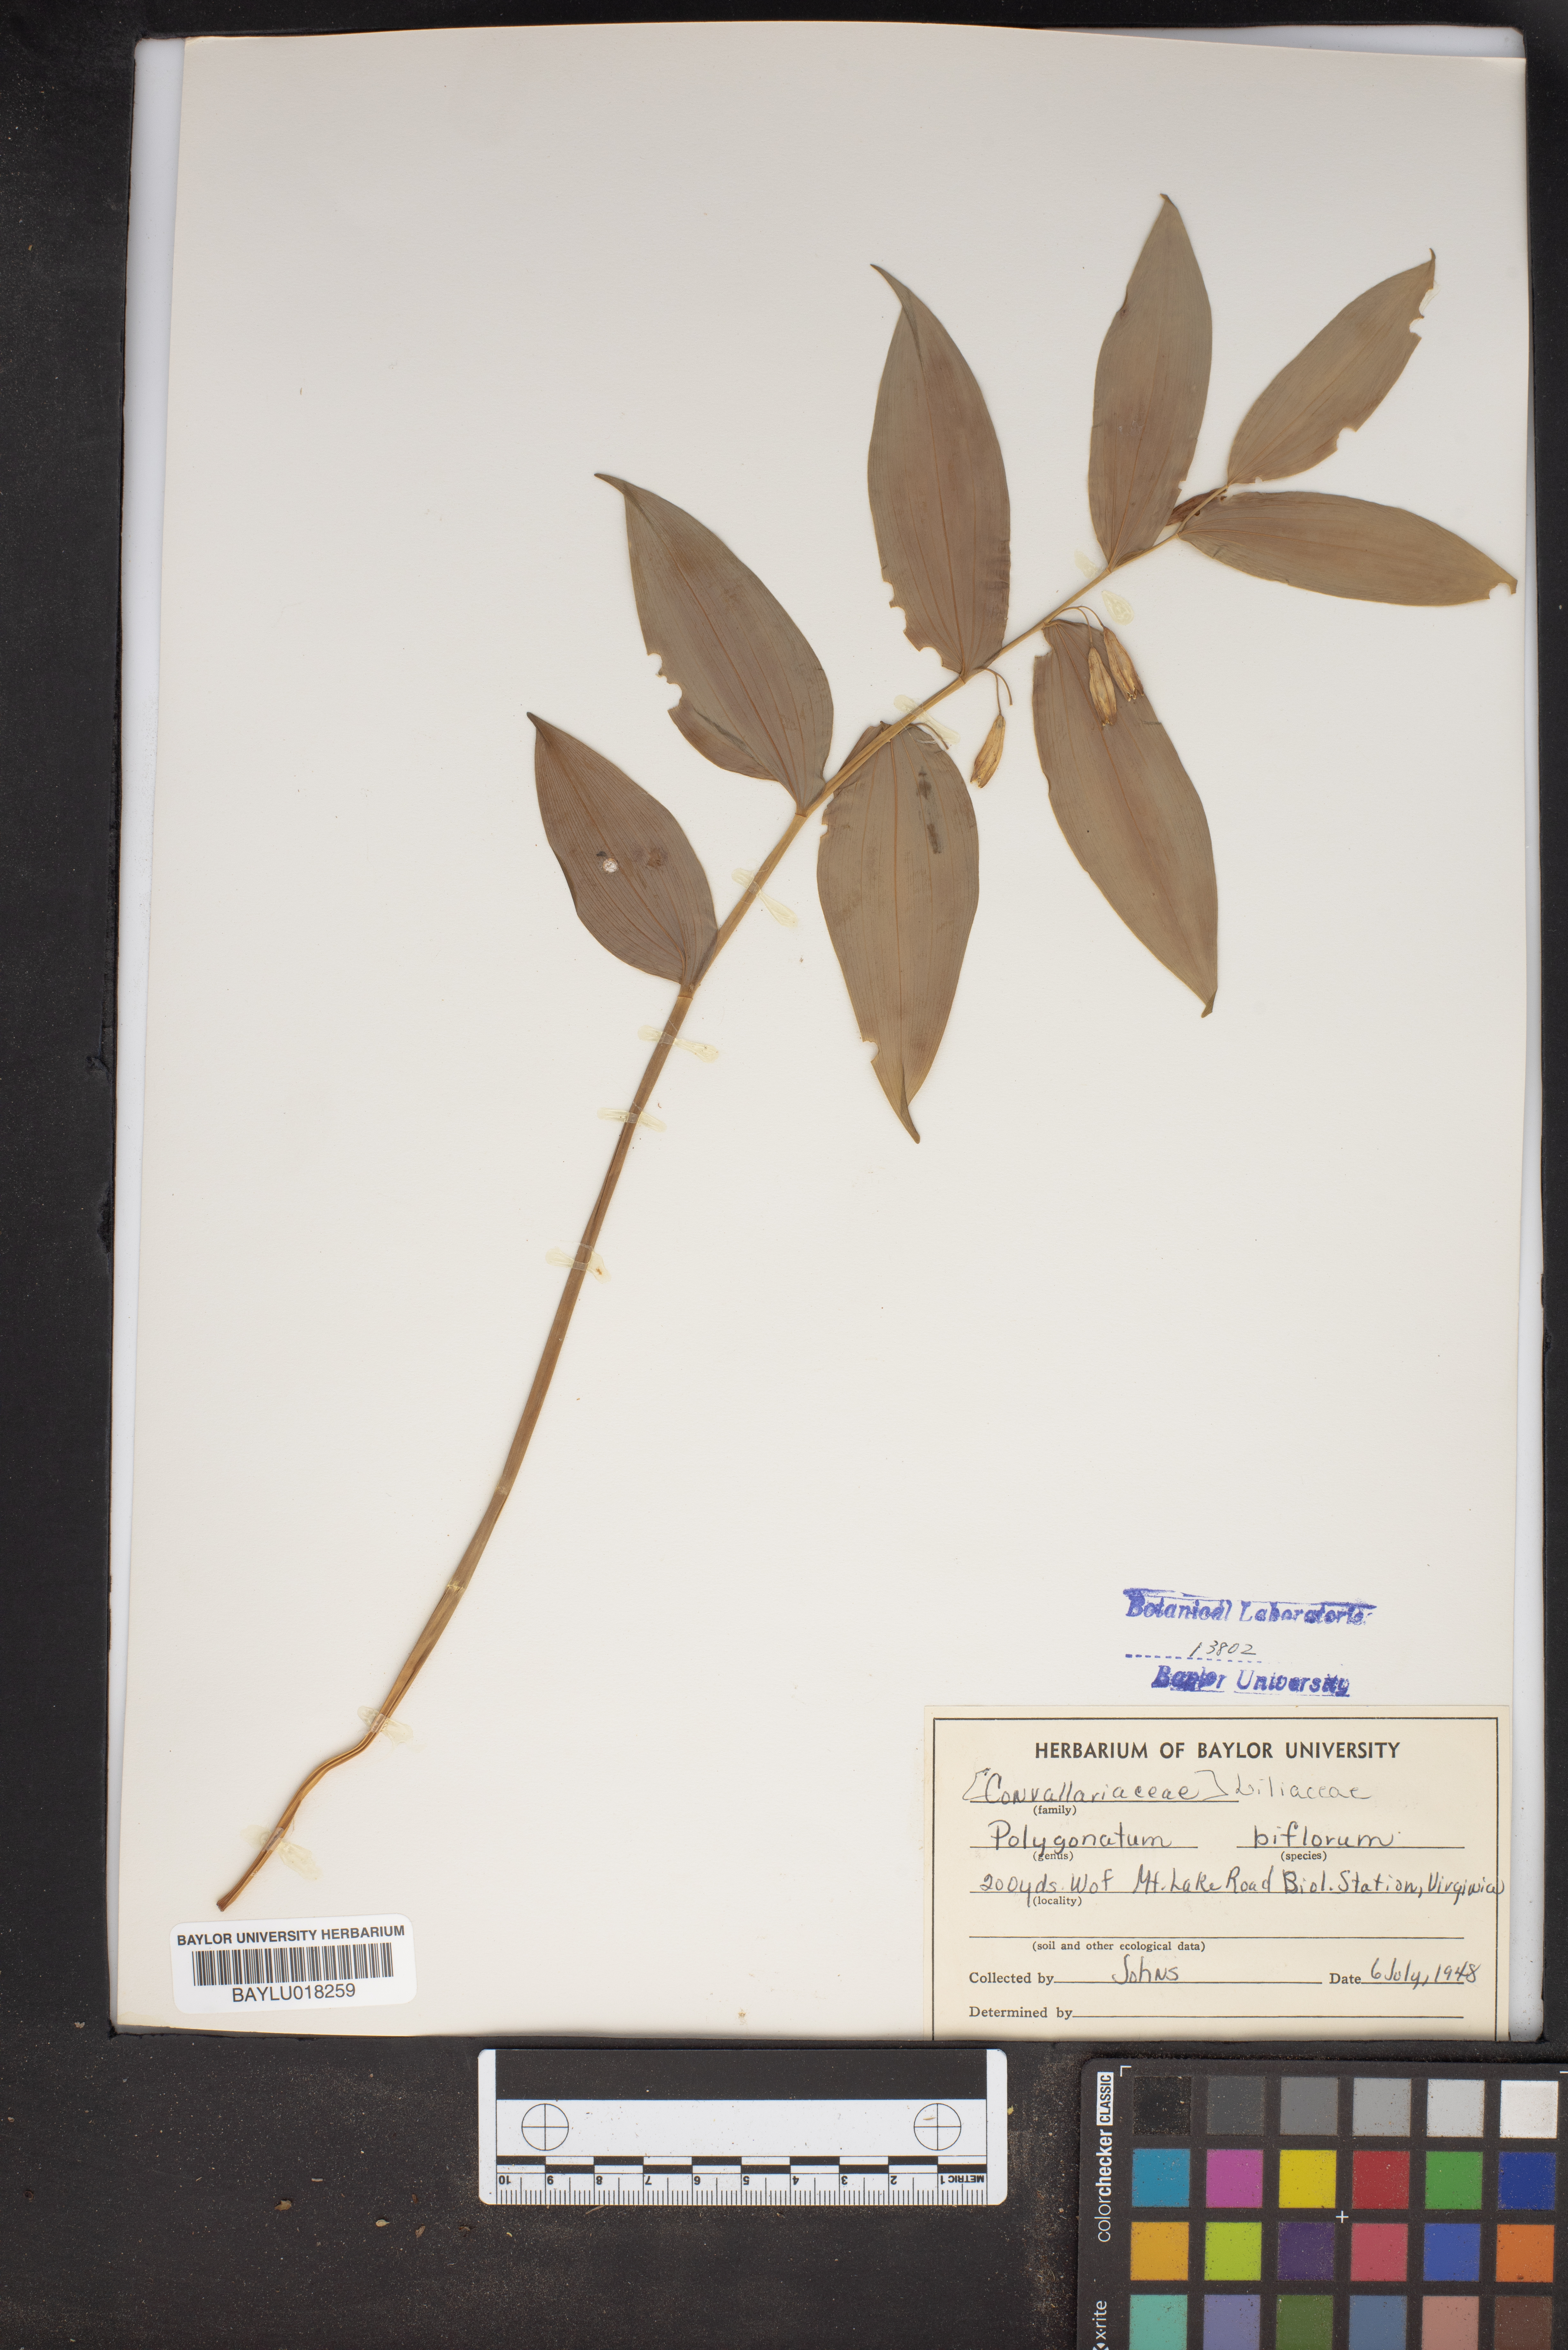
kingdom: Plantae
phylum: Tracheophyta
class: Liliopsida
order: Asparagales
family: Asparagaceae
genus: Polygonatum
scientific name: Polygonatum biflorum
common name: American solomon's-seal
